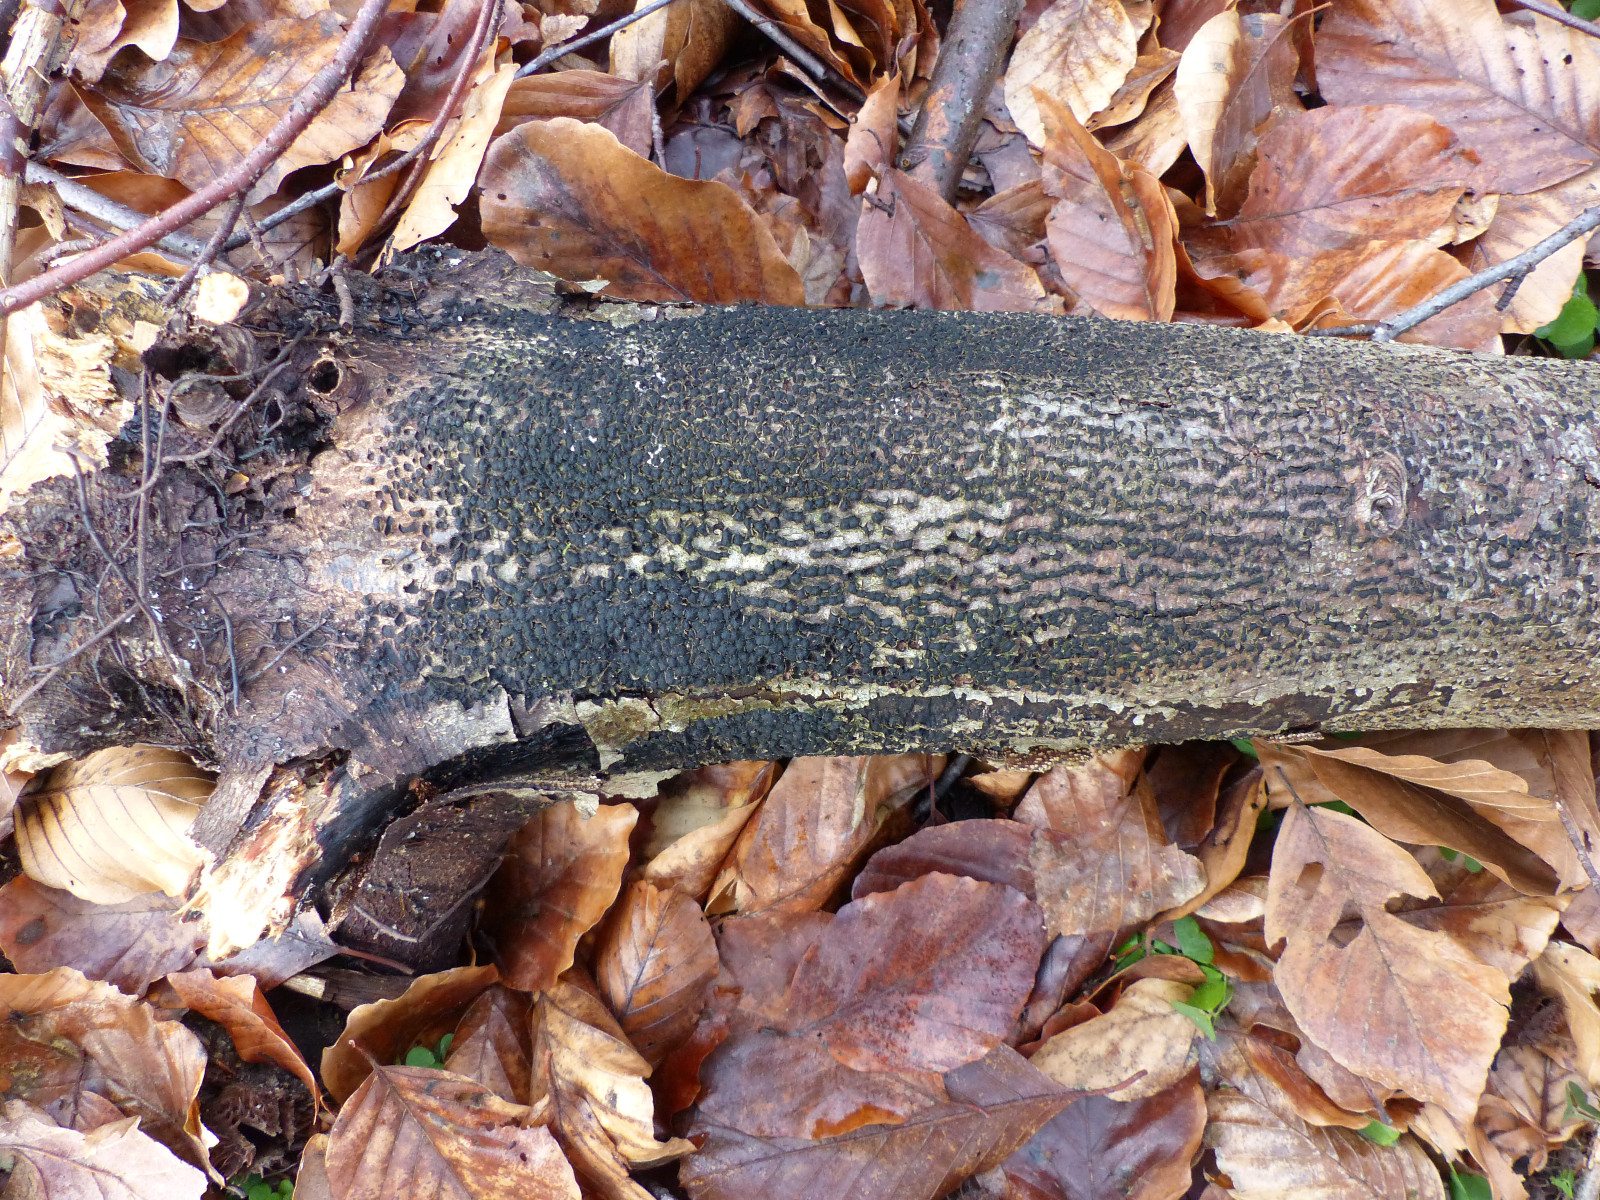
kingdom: Fungi
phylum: Ascomycota
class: Sordariomycetes
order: Xylariales
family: Melogrammataceae
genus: Melogramma
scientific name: Melogramma spiniferum
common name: bøgefod-kulhals
